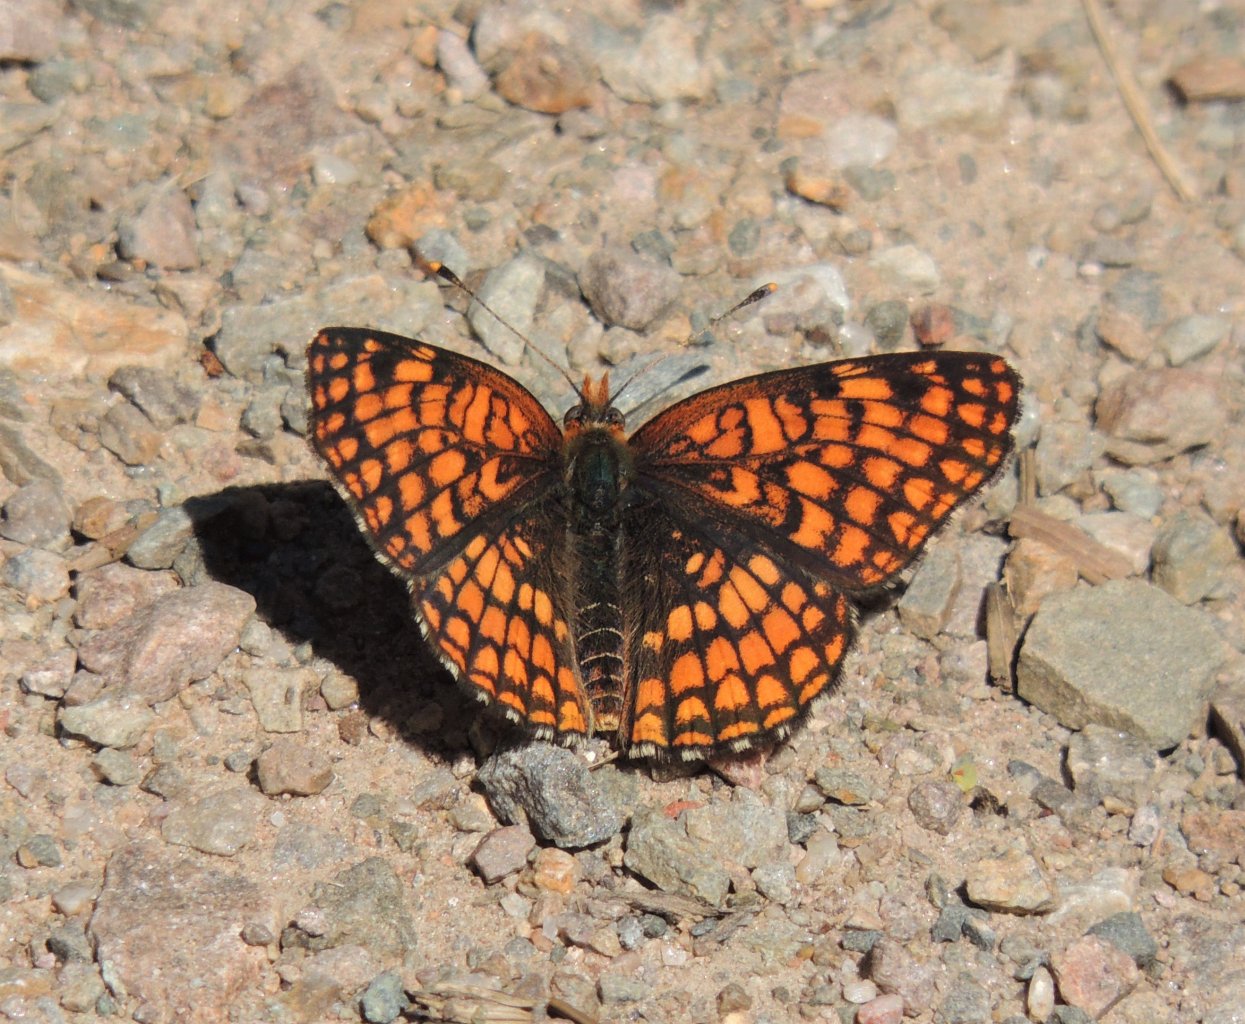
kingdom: Animalia
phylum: Arthropoda
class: Insecta
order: Lepidoptera
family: Nymphalidae
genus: Chlosyne
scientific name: Chlosyne palla
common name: Northern Checkerspot
